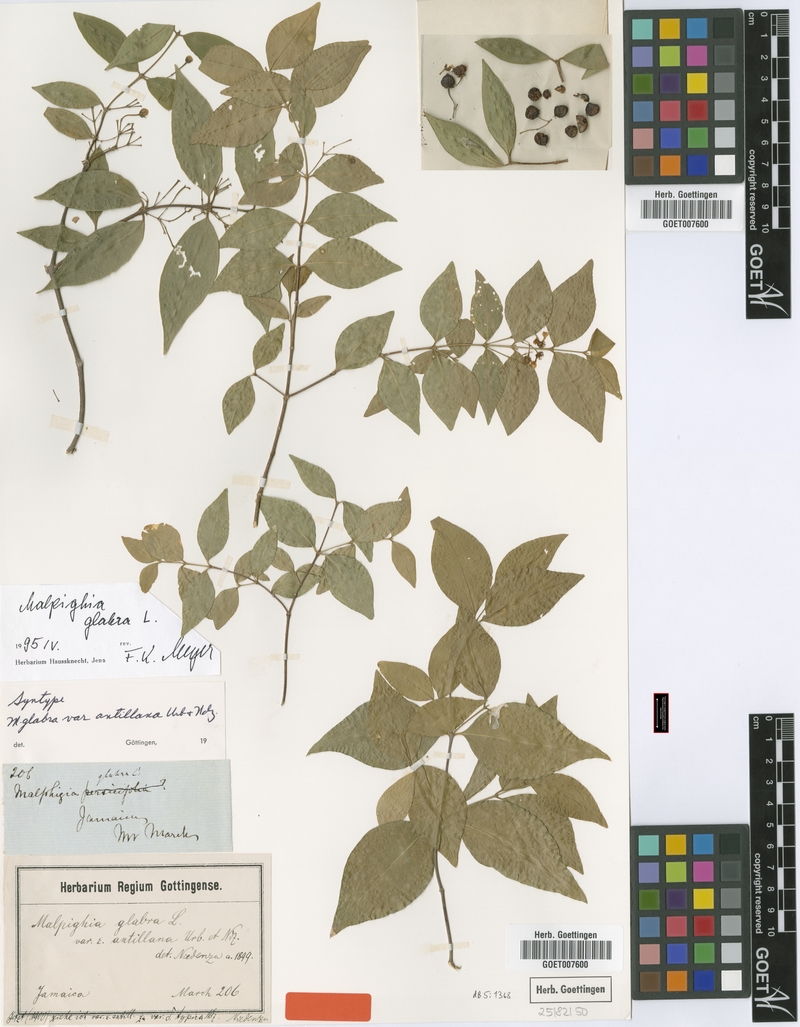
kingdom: Plantae
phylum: Tracheophyta
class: Magnoliopsida
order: Malpighiales
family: Malpighiaceae
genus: Malpighia
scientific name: Malpighia glabra
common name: Barbados cherry
